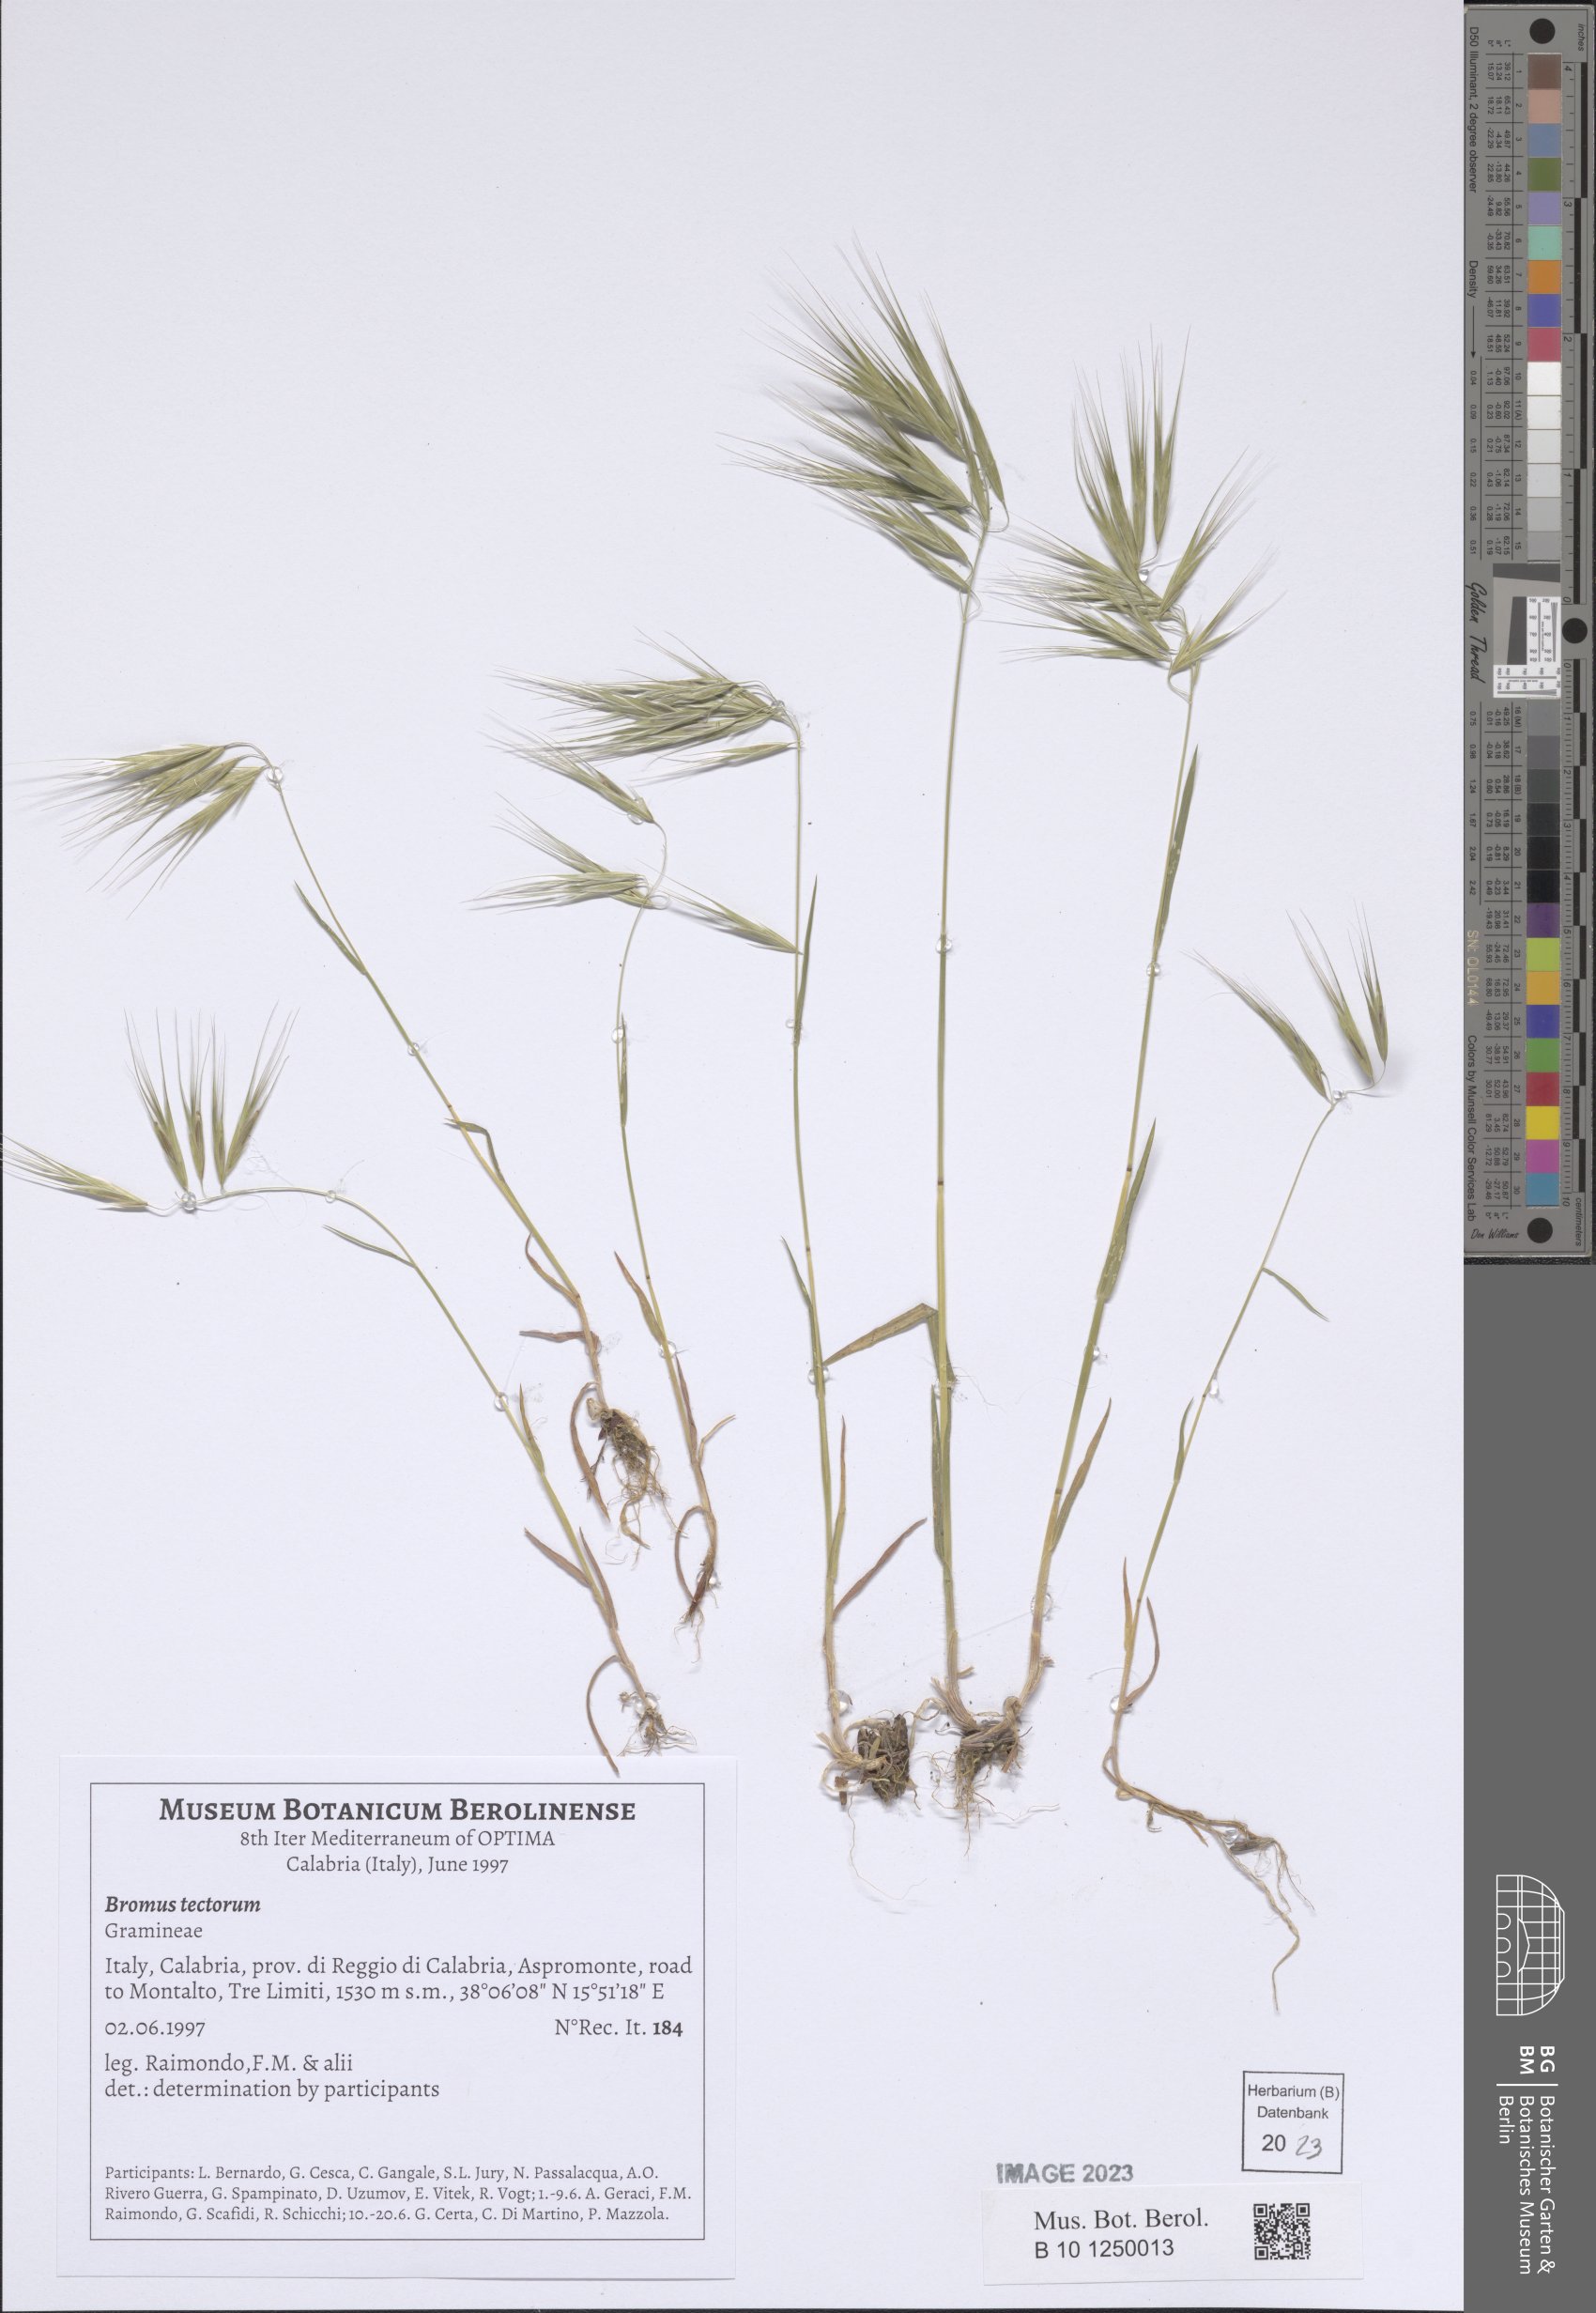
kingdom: Plantae
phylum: Tracheophyta
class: Liliopsida
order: Poales
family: Poaceae
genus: Bromus
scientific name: Bromus tectorum
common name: Cheatgrass
